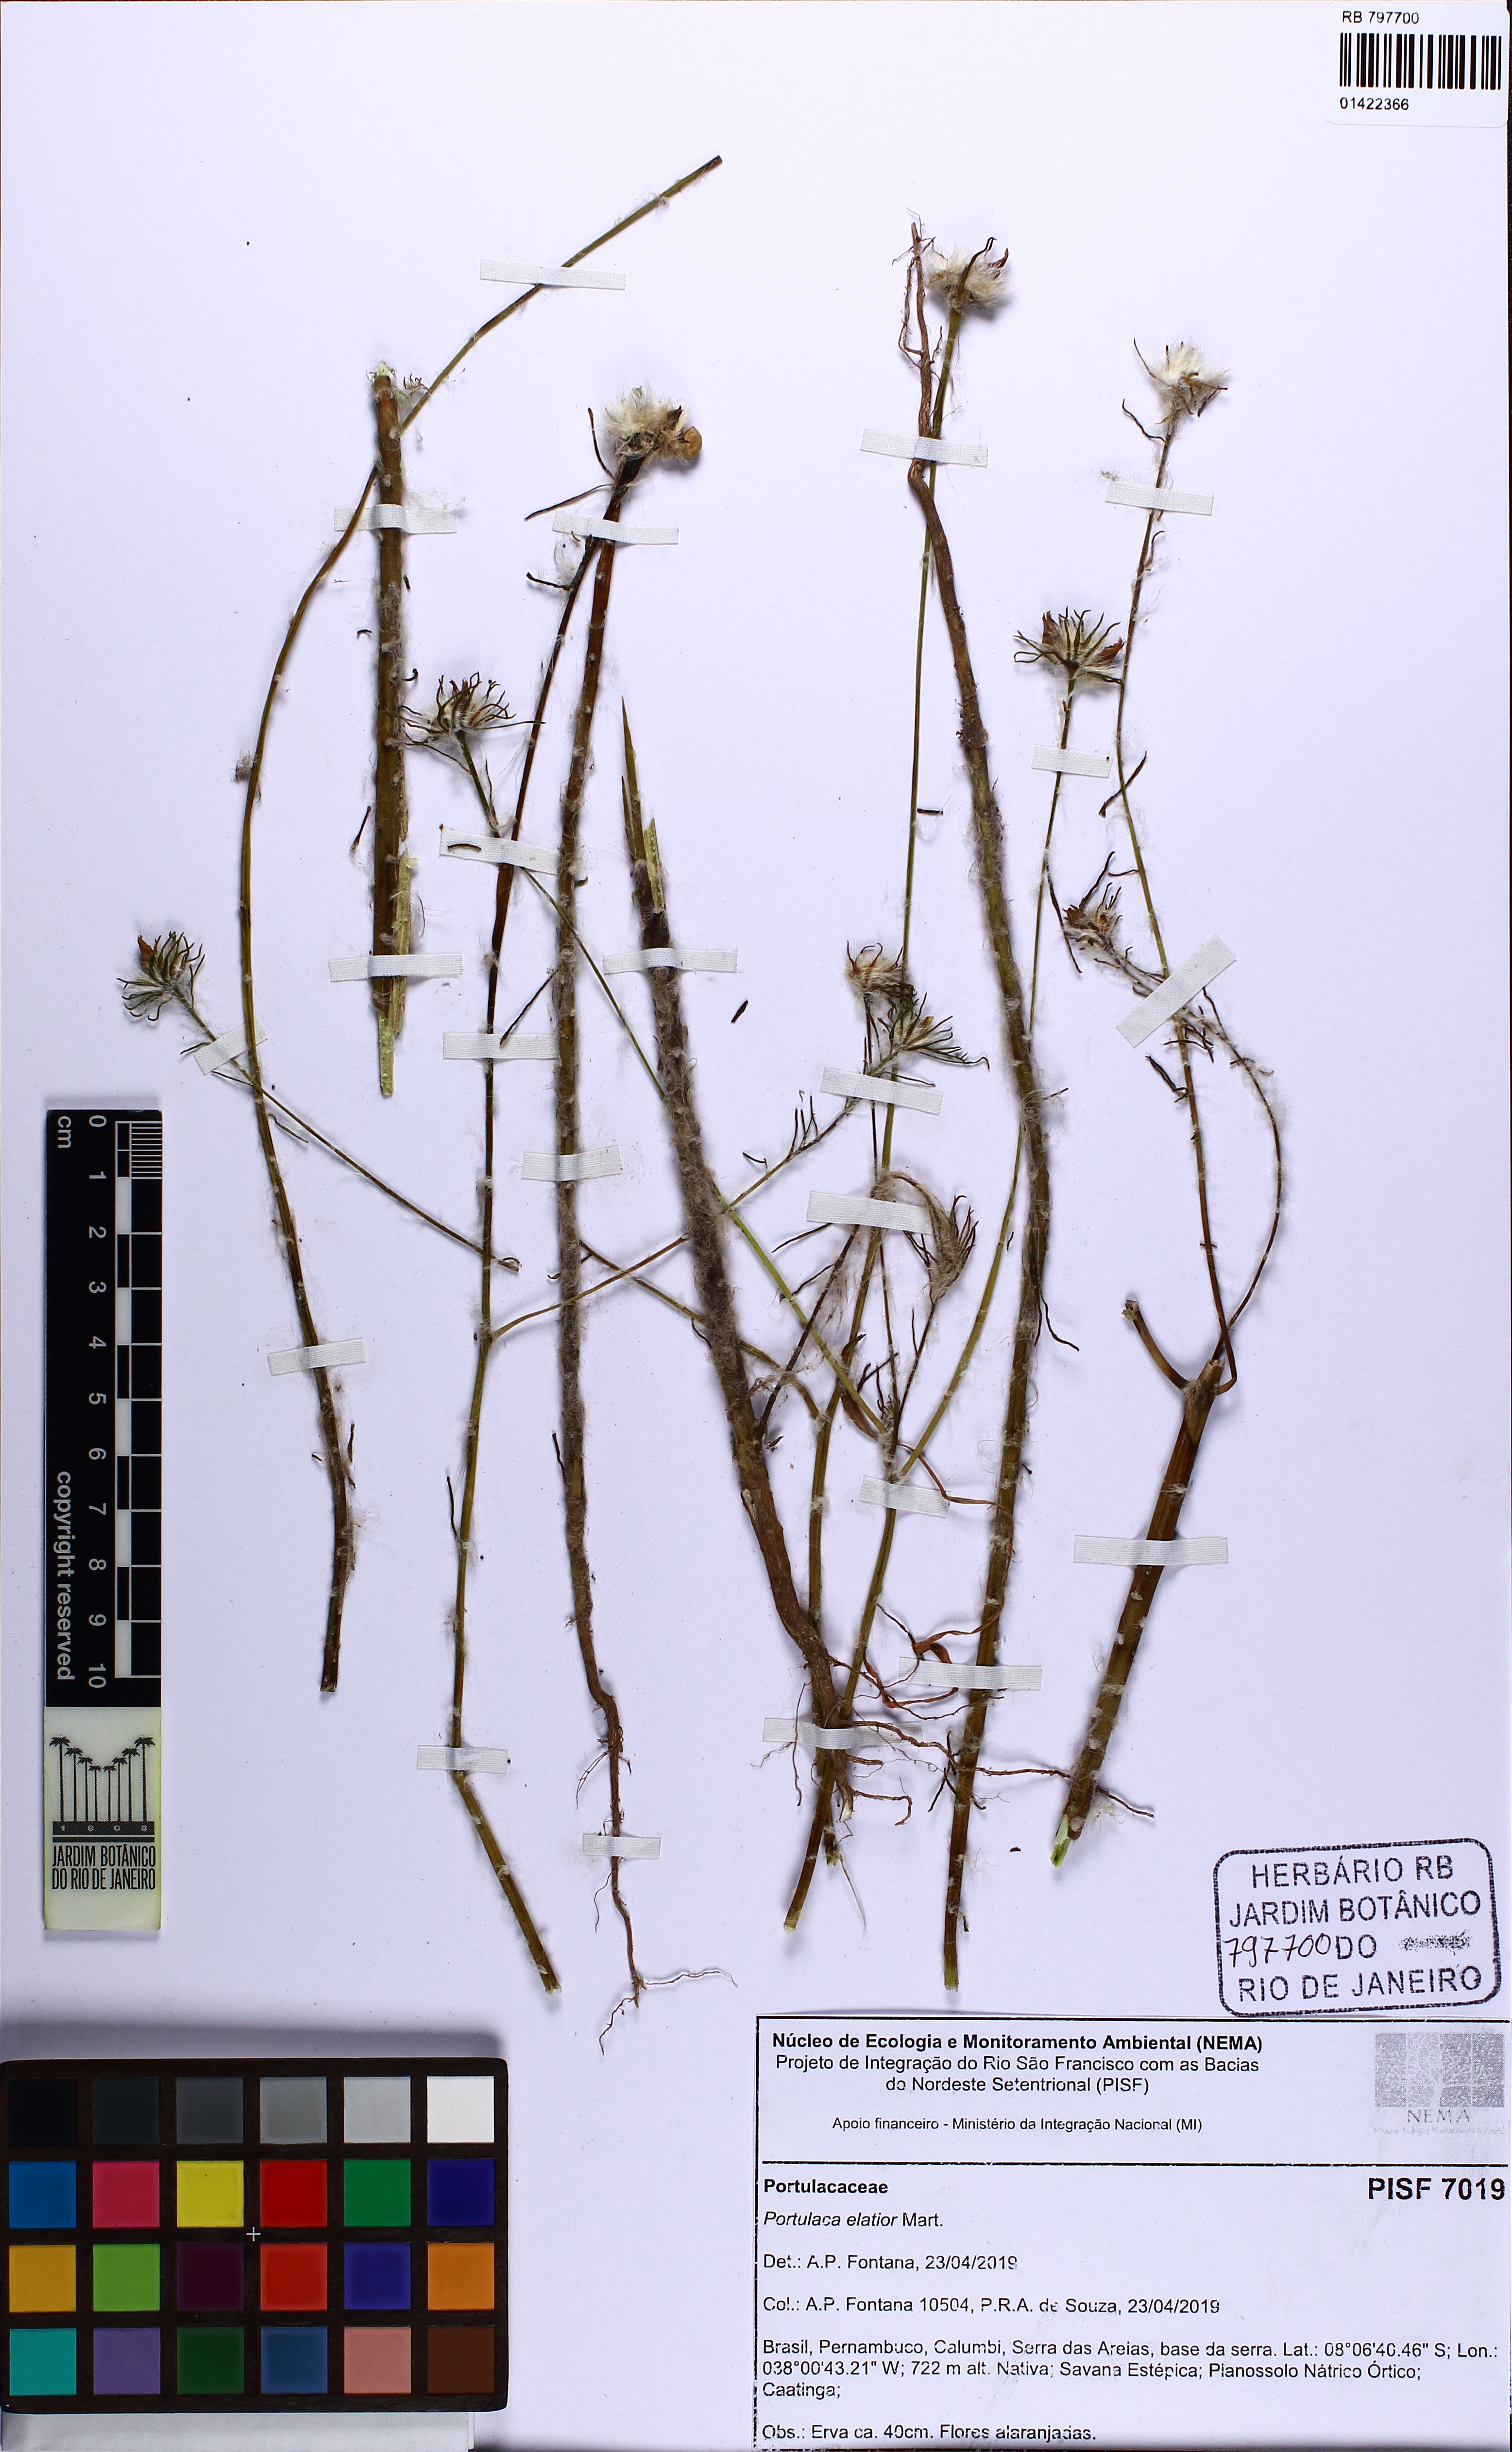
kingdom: Plantae
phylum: Tracheophyta
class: Magnoliopsida
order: Caryophyllales
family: Portulacaceae
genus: Portulaca
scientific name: Portulaca elatior
